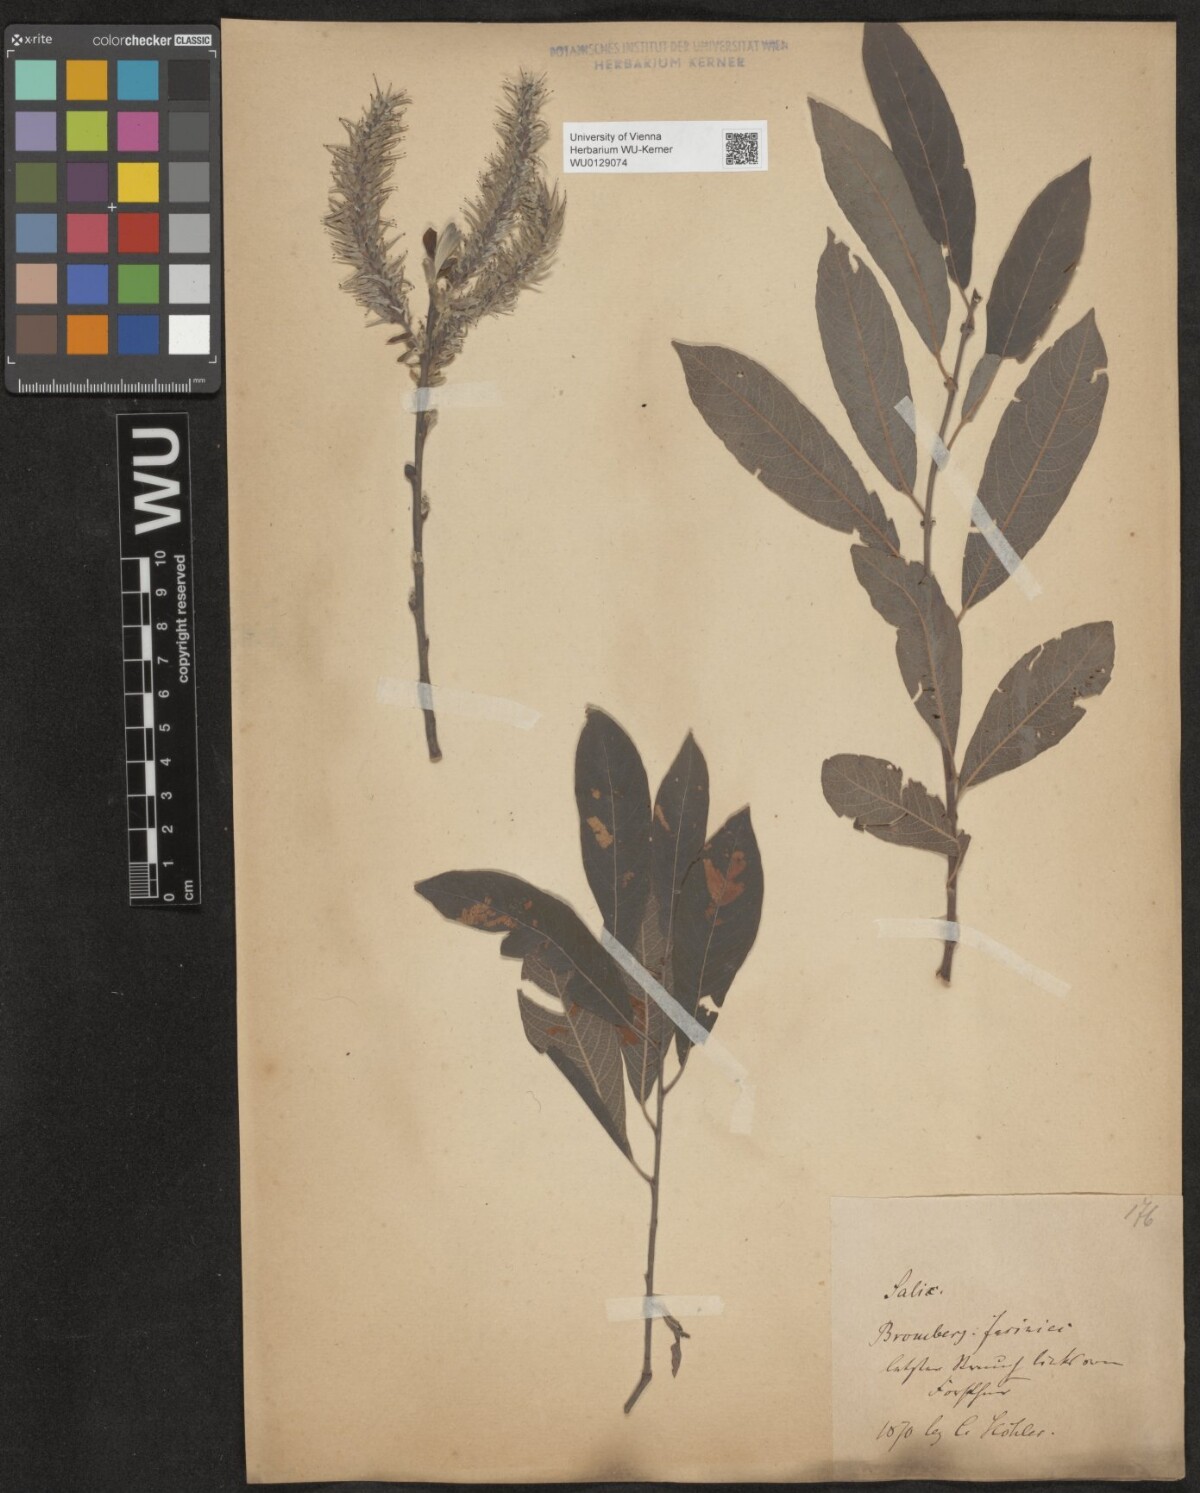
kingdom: Plantae
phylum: Tracheophyta
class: Magnoliopsida
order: Malpighiales
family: Salicaceae
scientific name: Salicaceae
